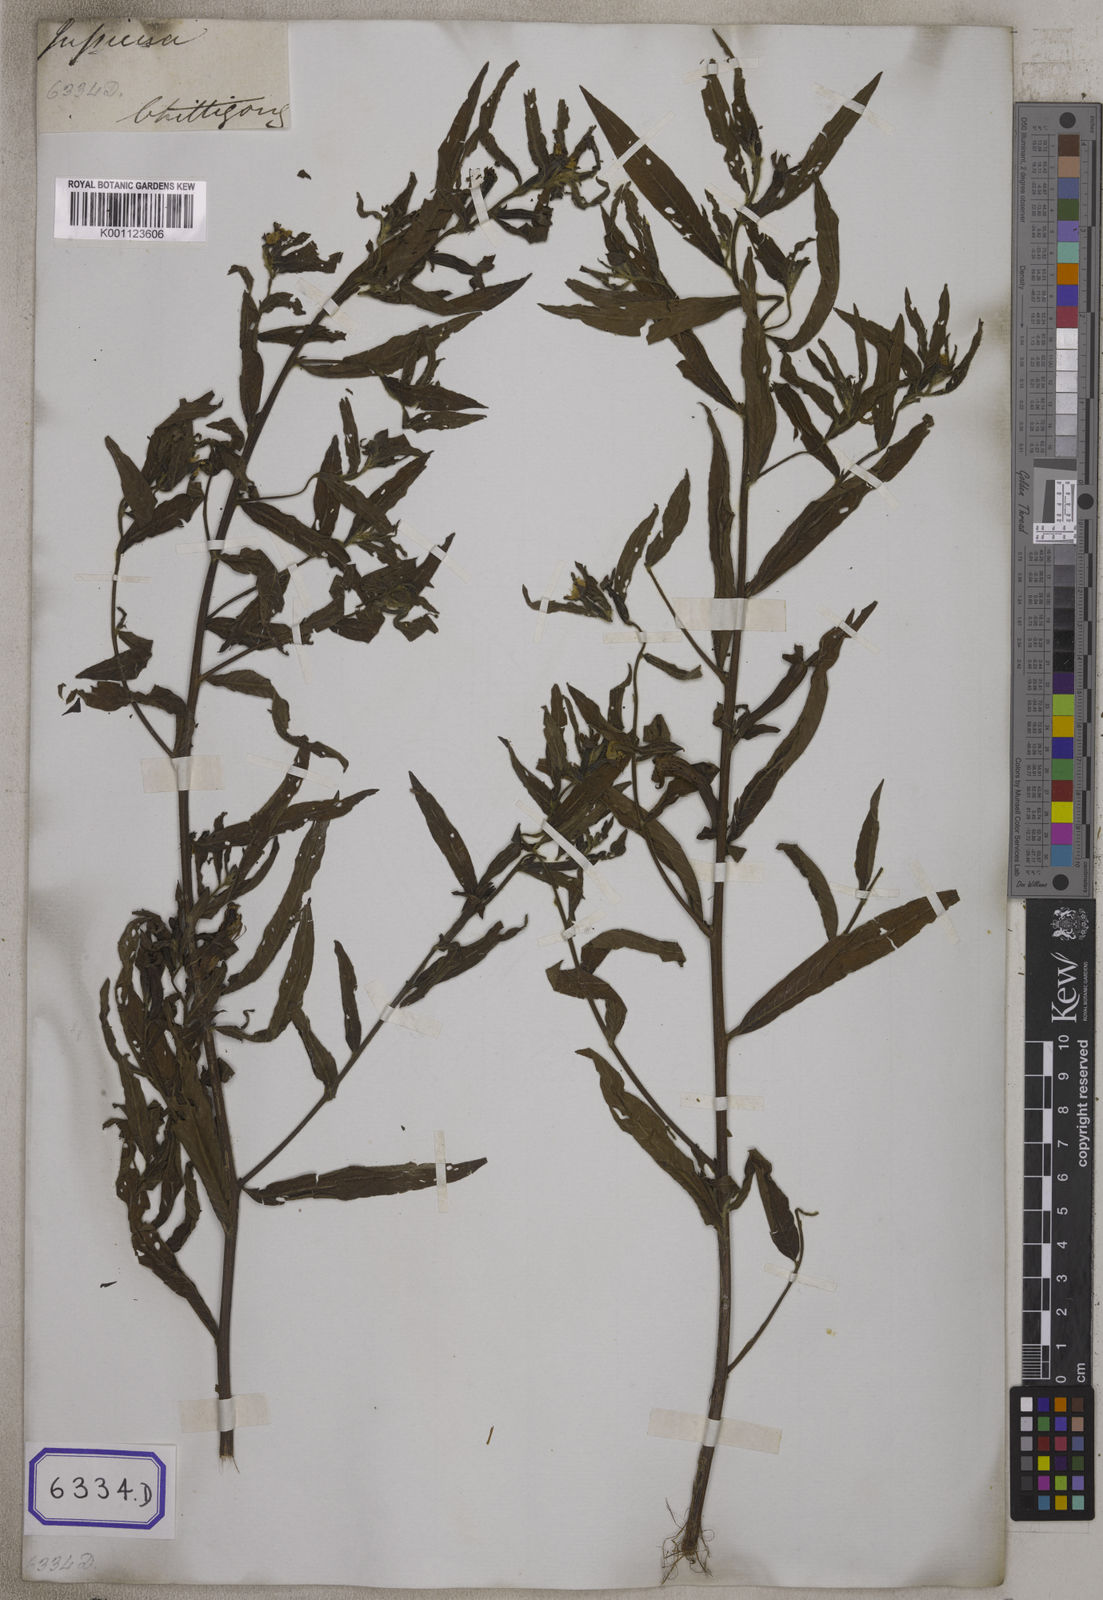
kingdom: Plantae
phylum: Tracheophyta
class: Magnoliopsida
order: Myrtales
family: Onagraceae
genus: Ludwigia
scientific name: Ludwigia octovalvis
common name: Water-primrose
